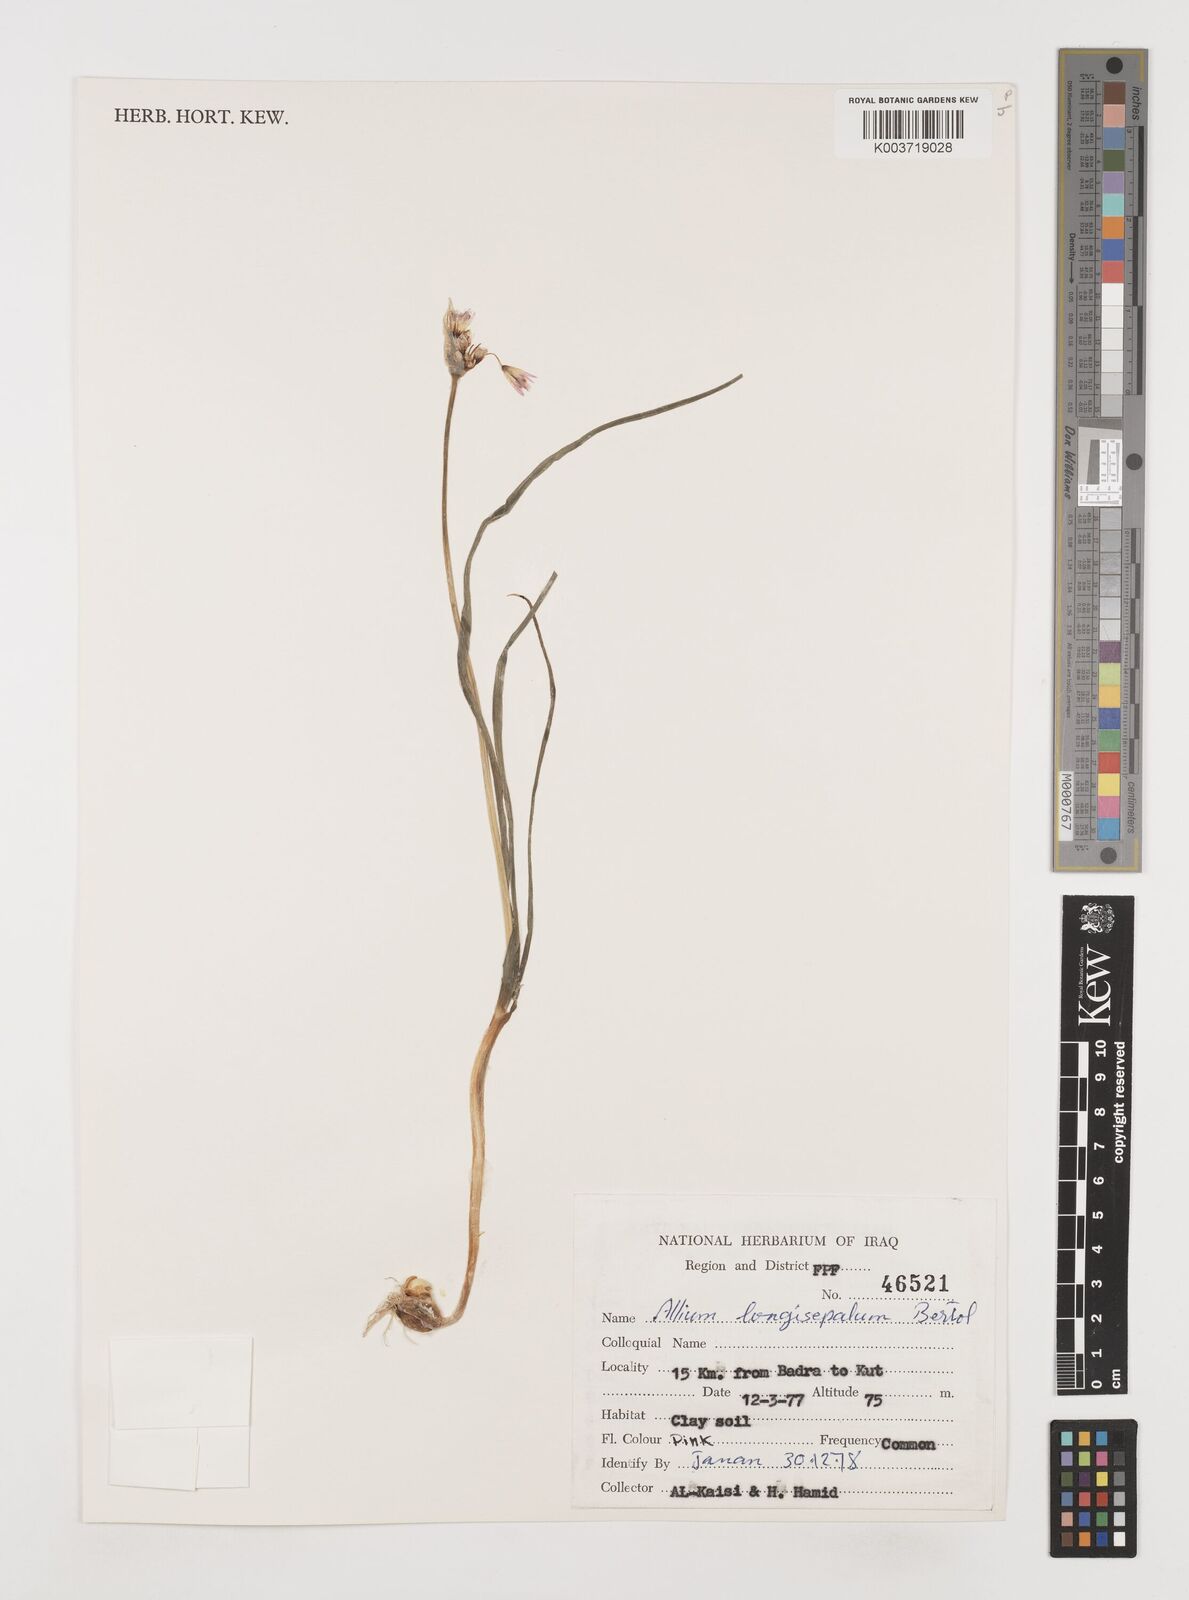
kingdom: Plantae
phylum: Tracheophyta
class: Liliopsida
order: Asparagales
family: Amaryllidaceae
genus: Allium
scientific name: Allium longisepalum
